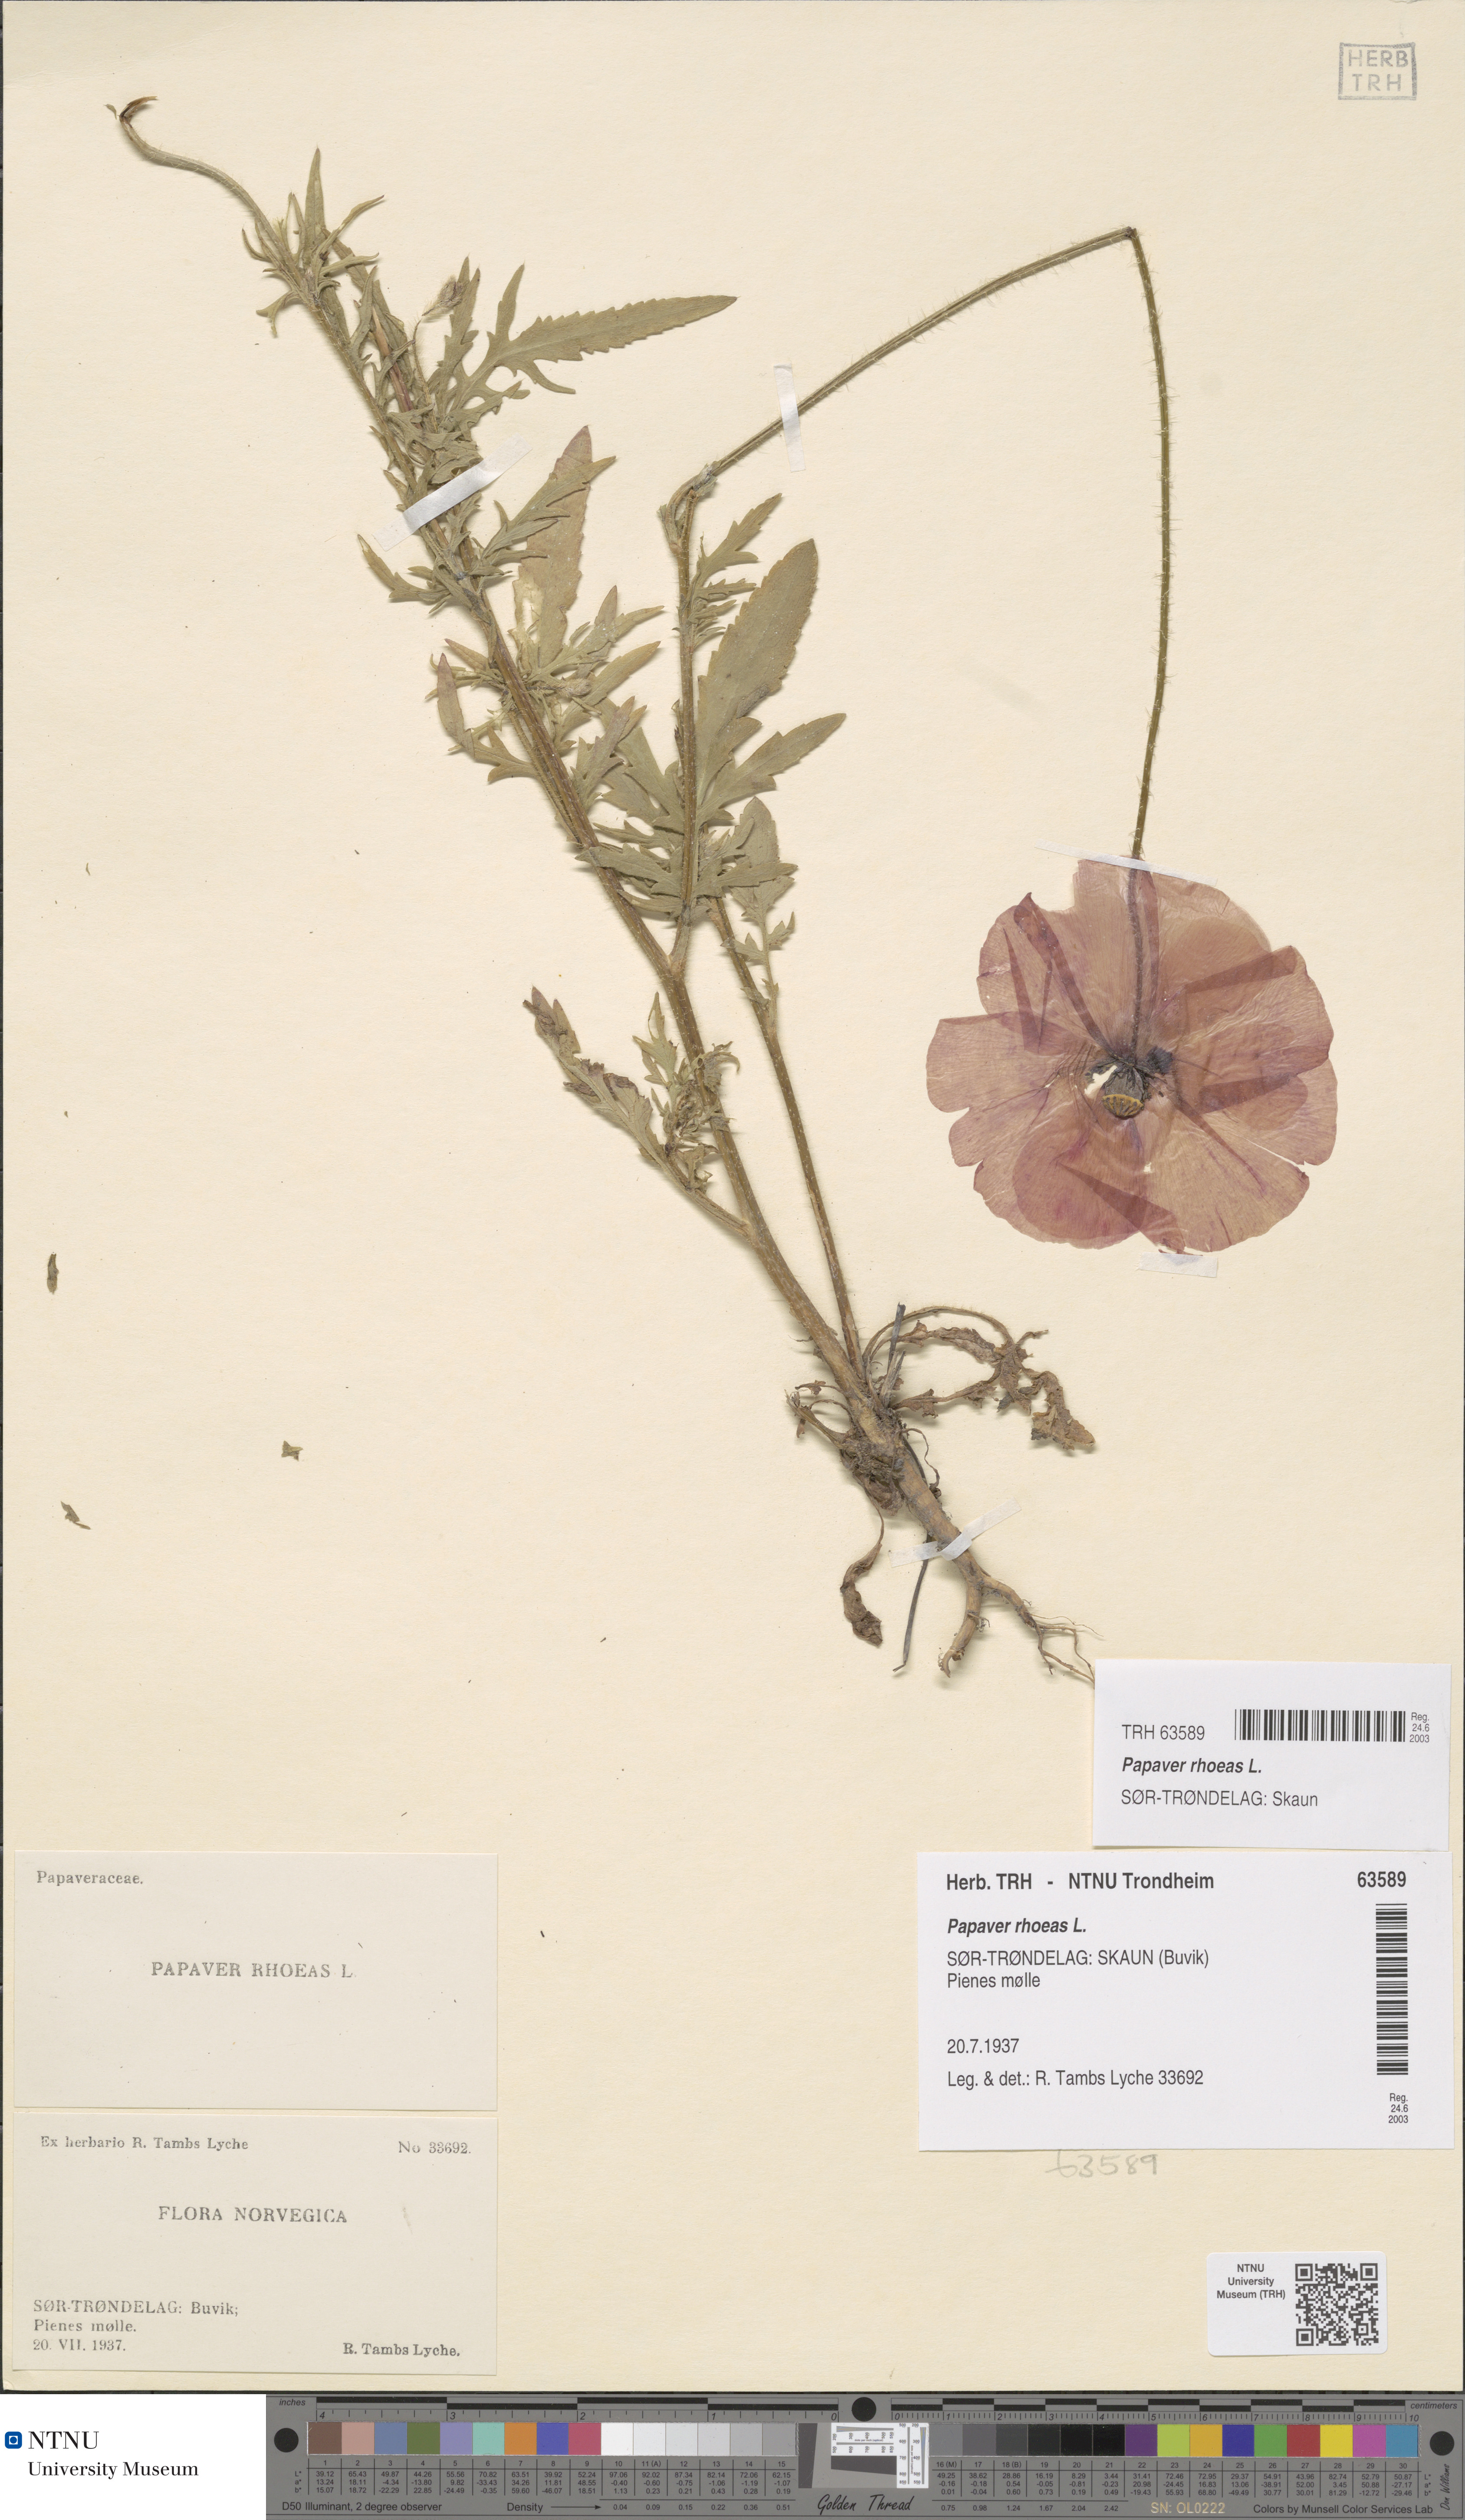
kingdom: Plantae
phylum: Tracheophyta
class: Magnoliopsida
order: Ranunculales
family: Papaveraceae
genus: Papaver
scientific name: Papaver rhoeas
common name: Corn poppy
